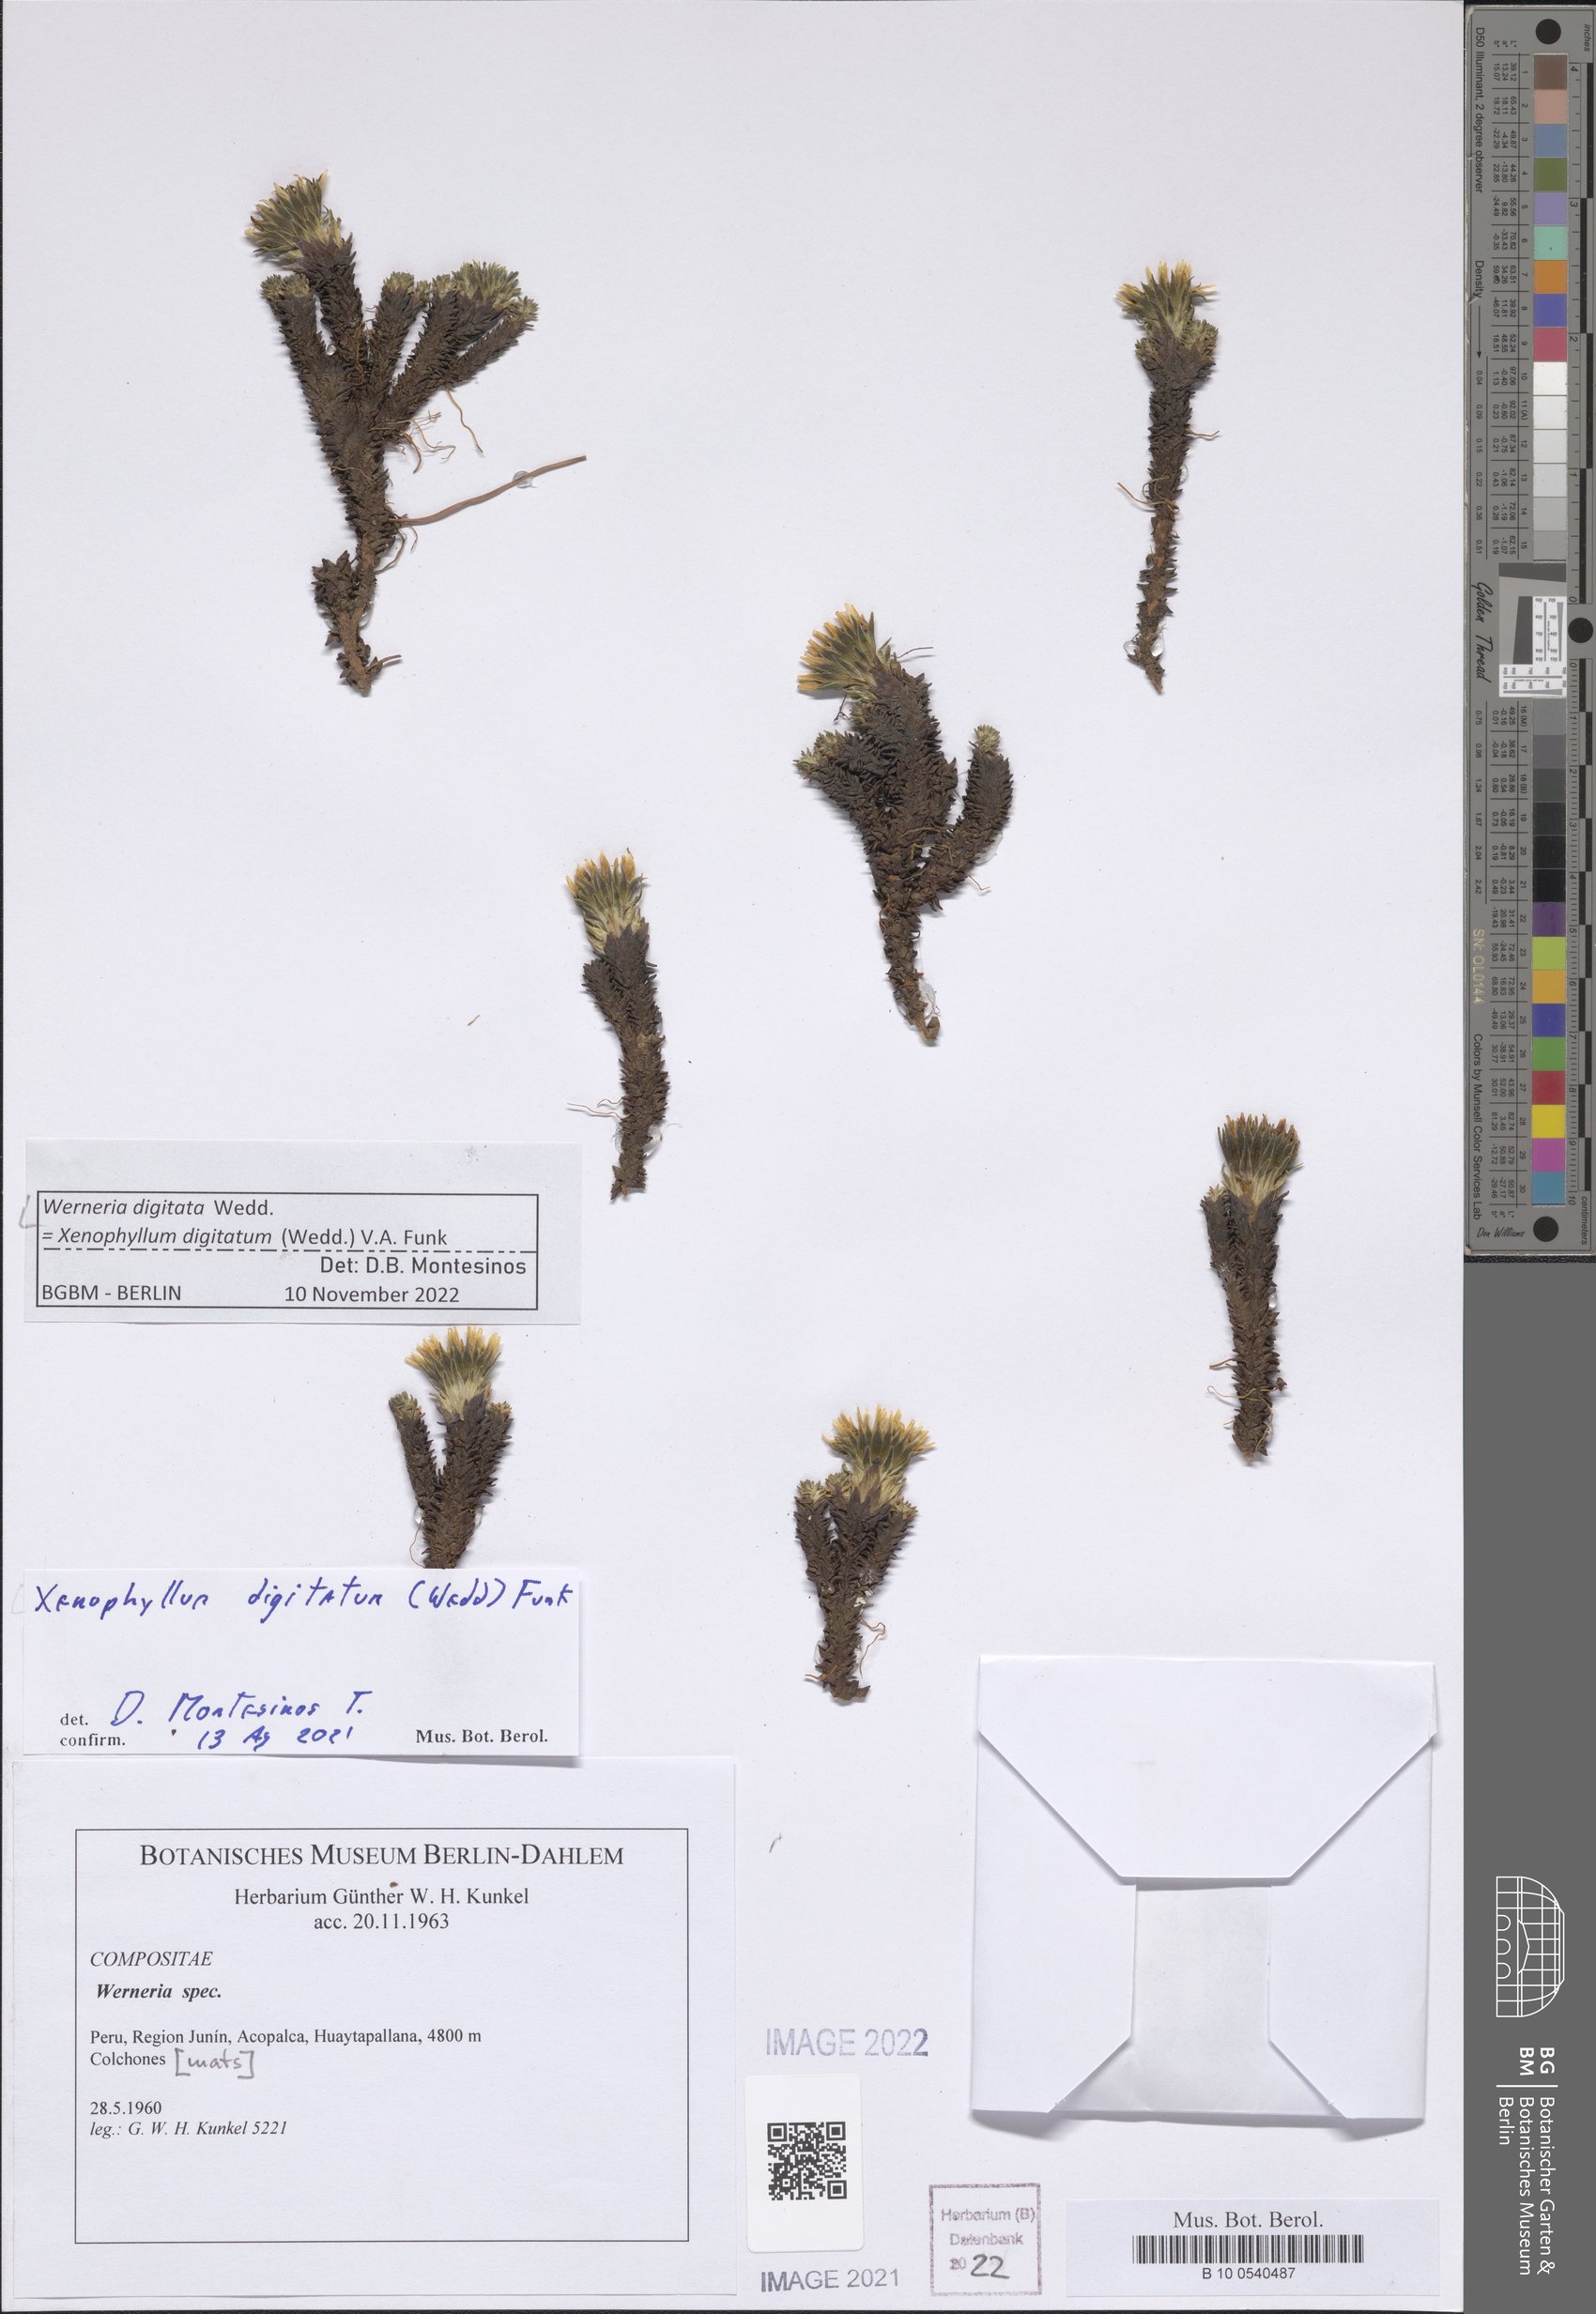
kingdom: Plantae
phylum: Tracheophyta
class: Magnoliopsida
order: Asterales
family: Asteraceae
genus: Werneria
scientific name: Werneria digitata
